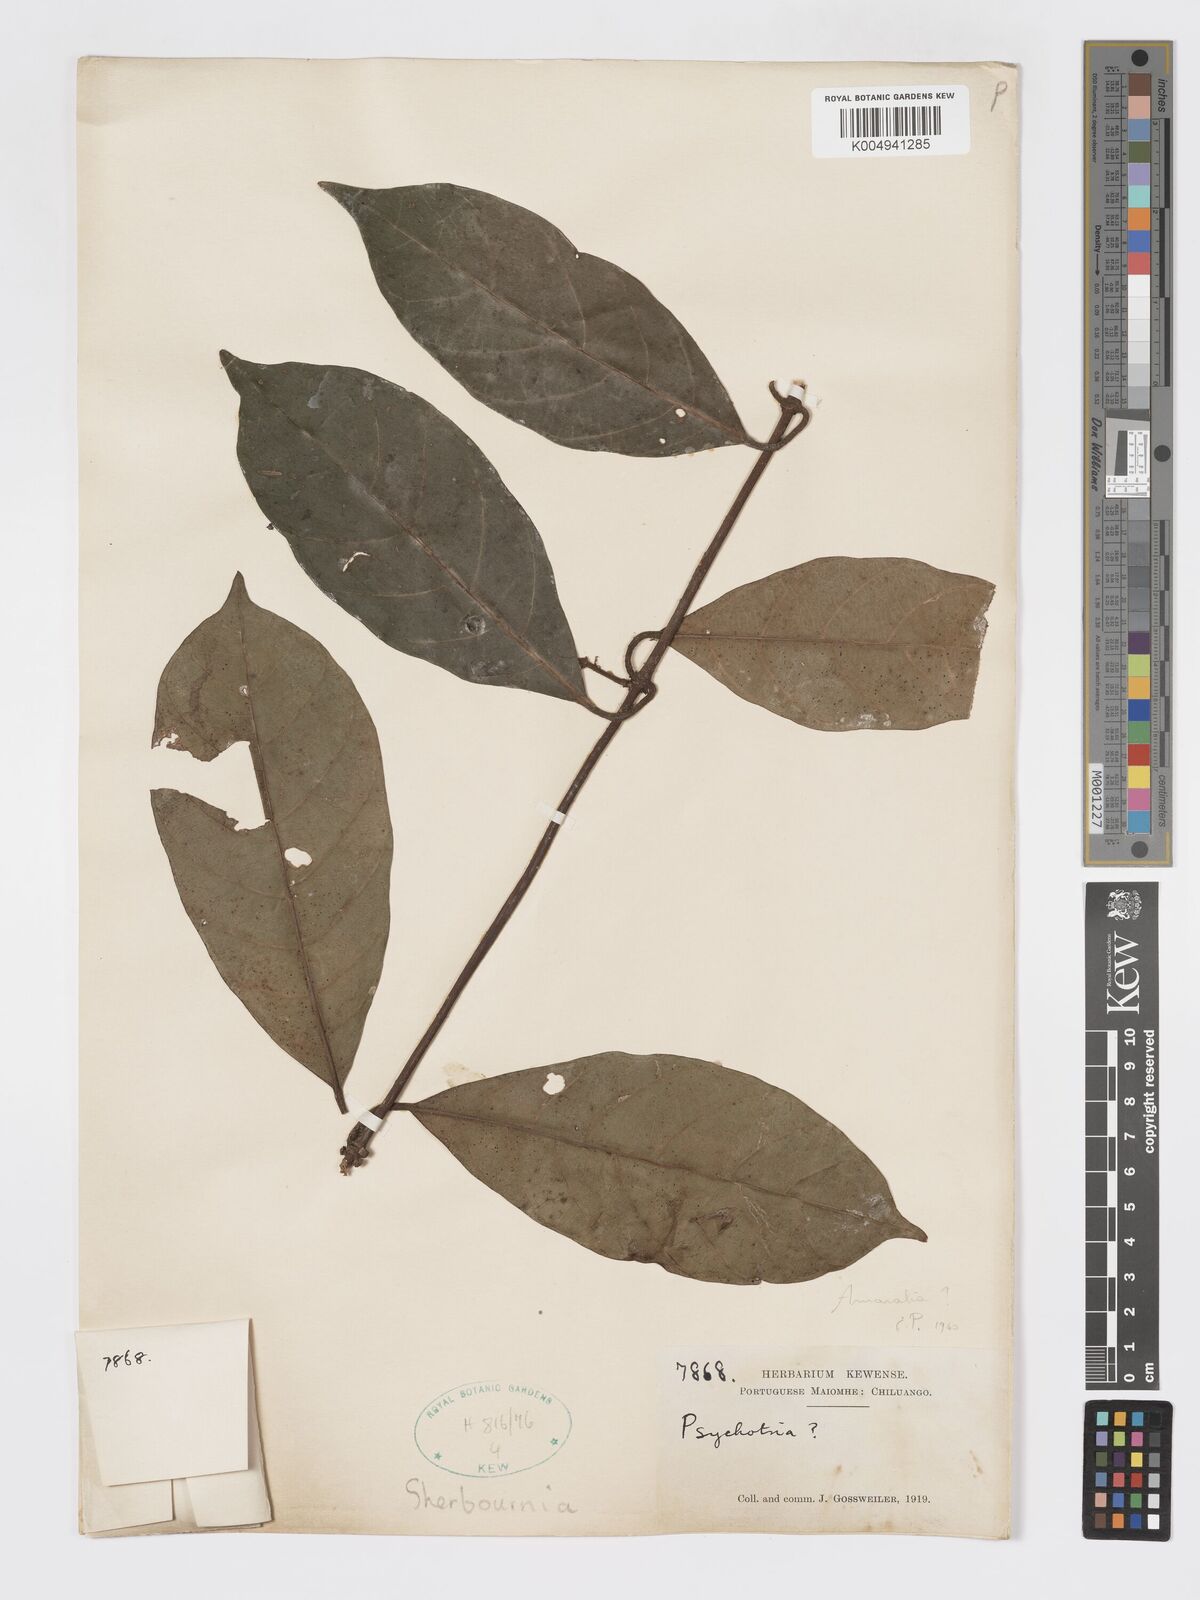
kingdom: Plantae
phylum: Tracheophyta
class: Magnoliopsida
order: Gentianales
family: Rubiaceae
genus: Sherbournia
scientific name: Sherbournia
